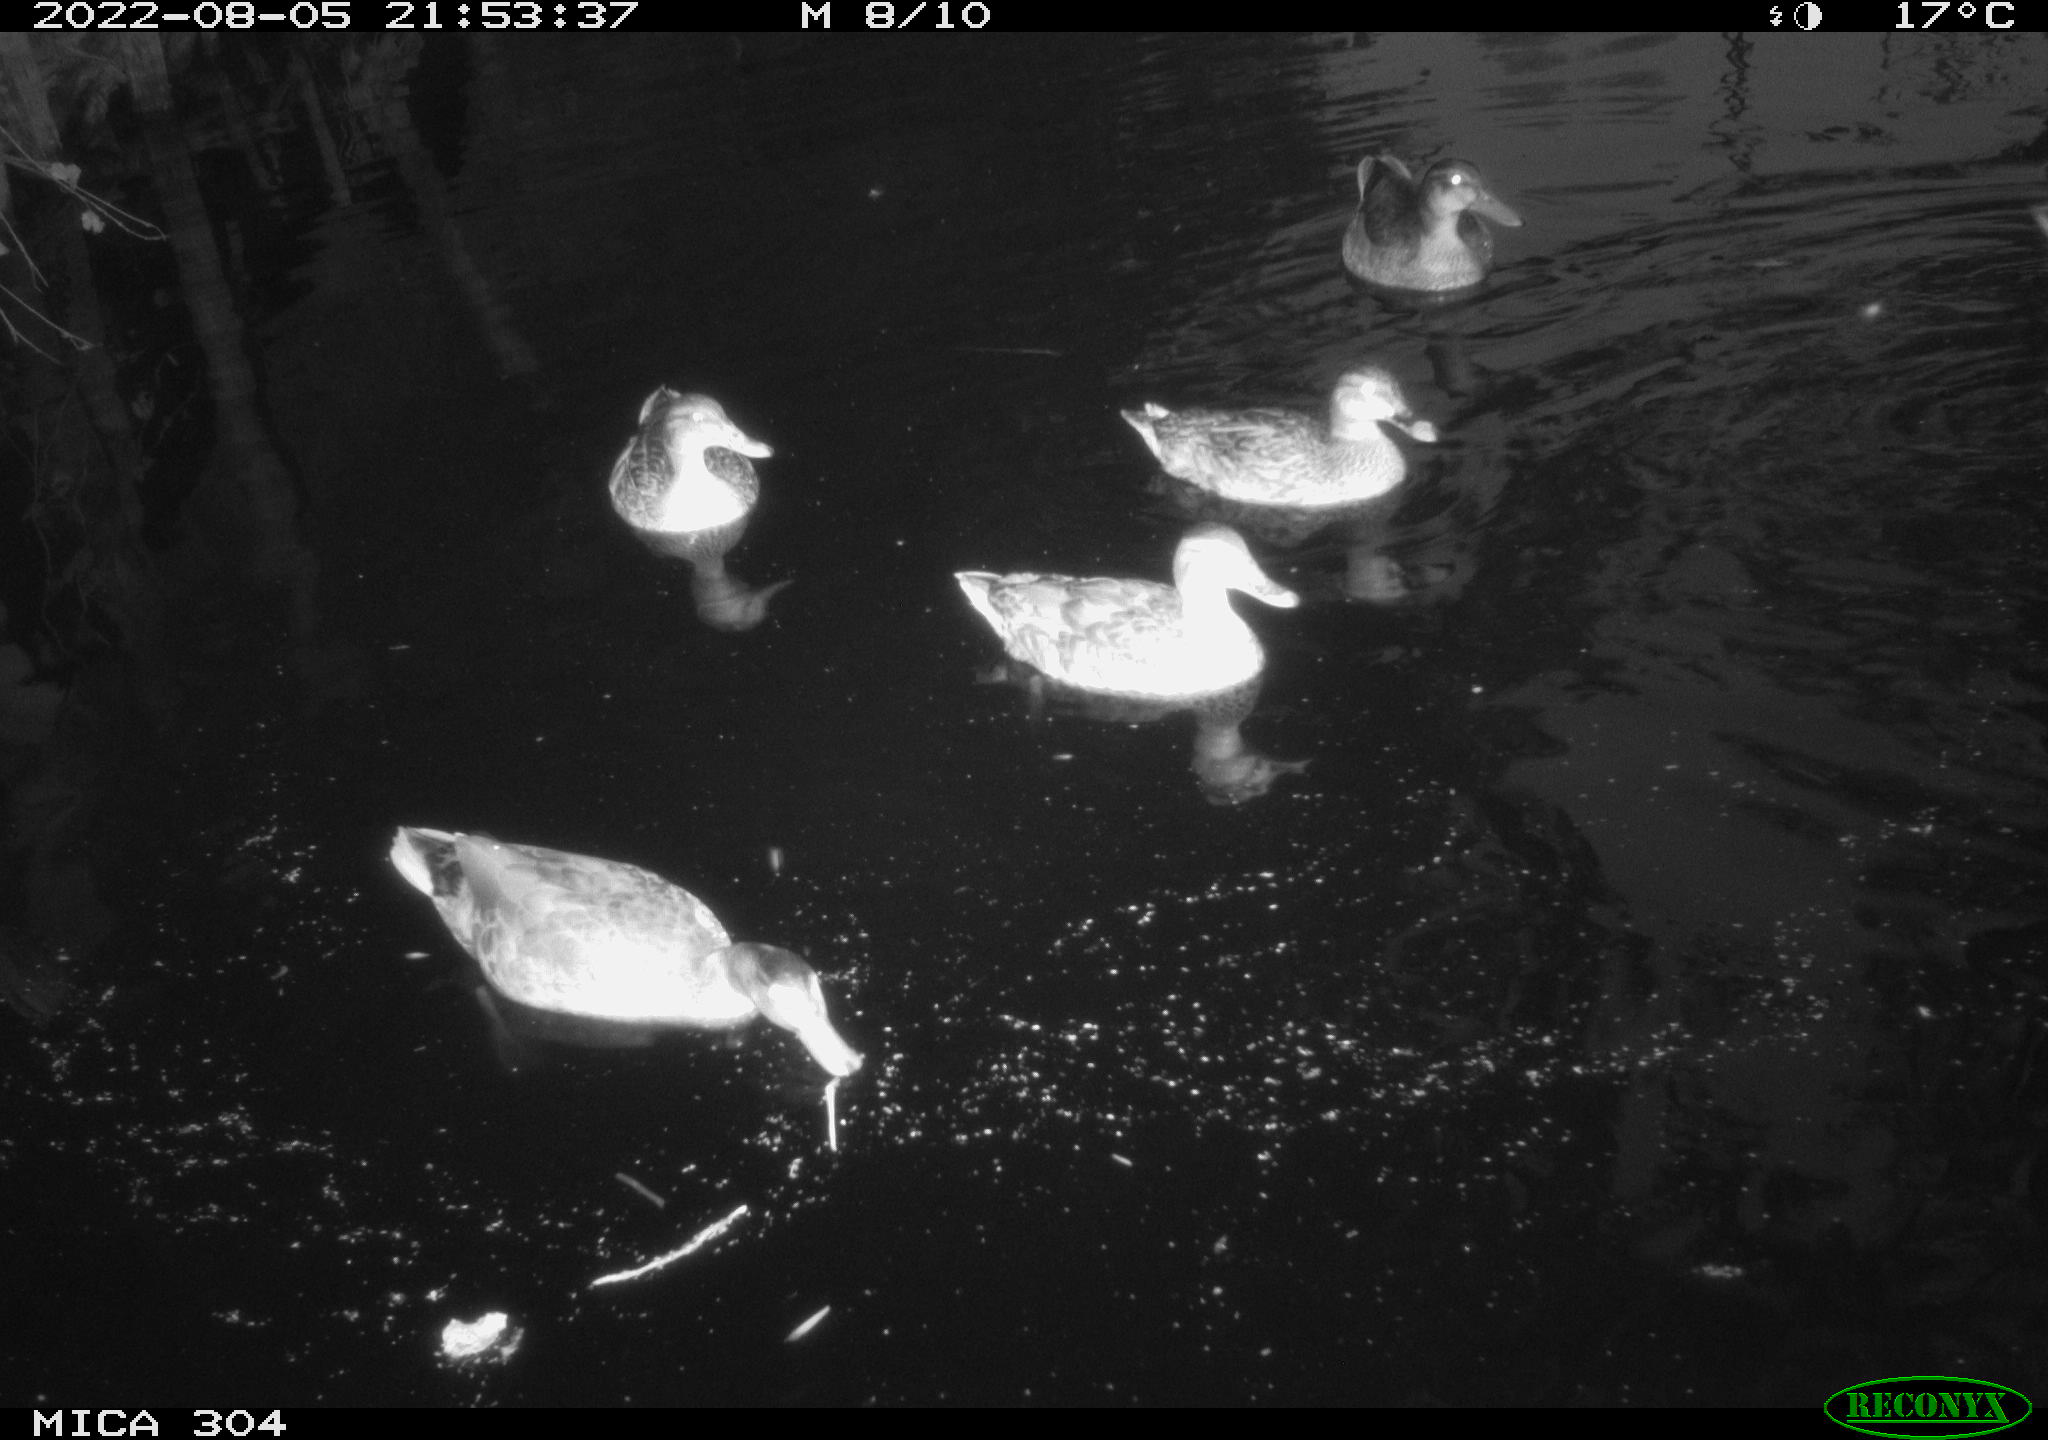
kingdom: Animalia
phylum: Chordata
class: Aves
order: Anseriformes
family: Anatidae
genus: Mareca
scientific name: Mareca strepera
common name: Gadwall
